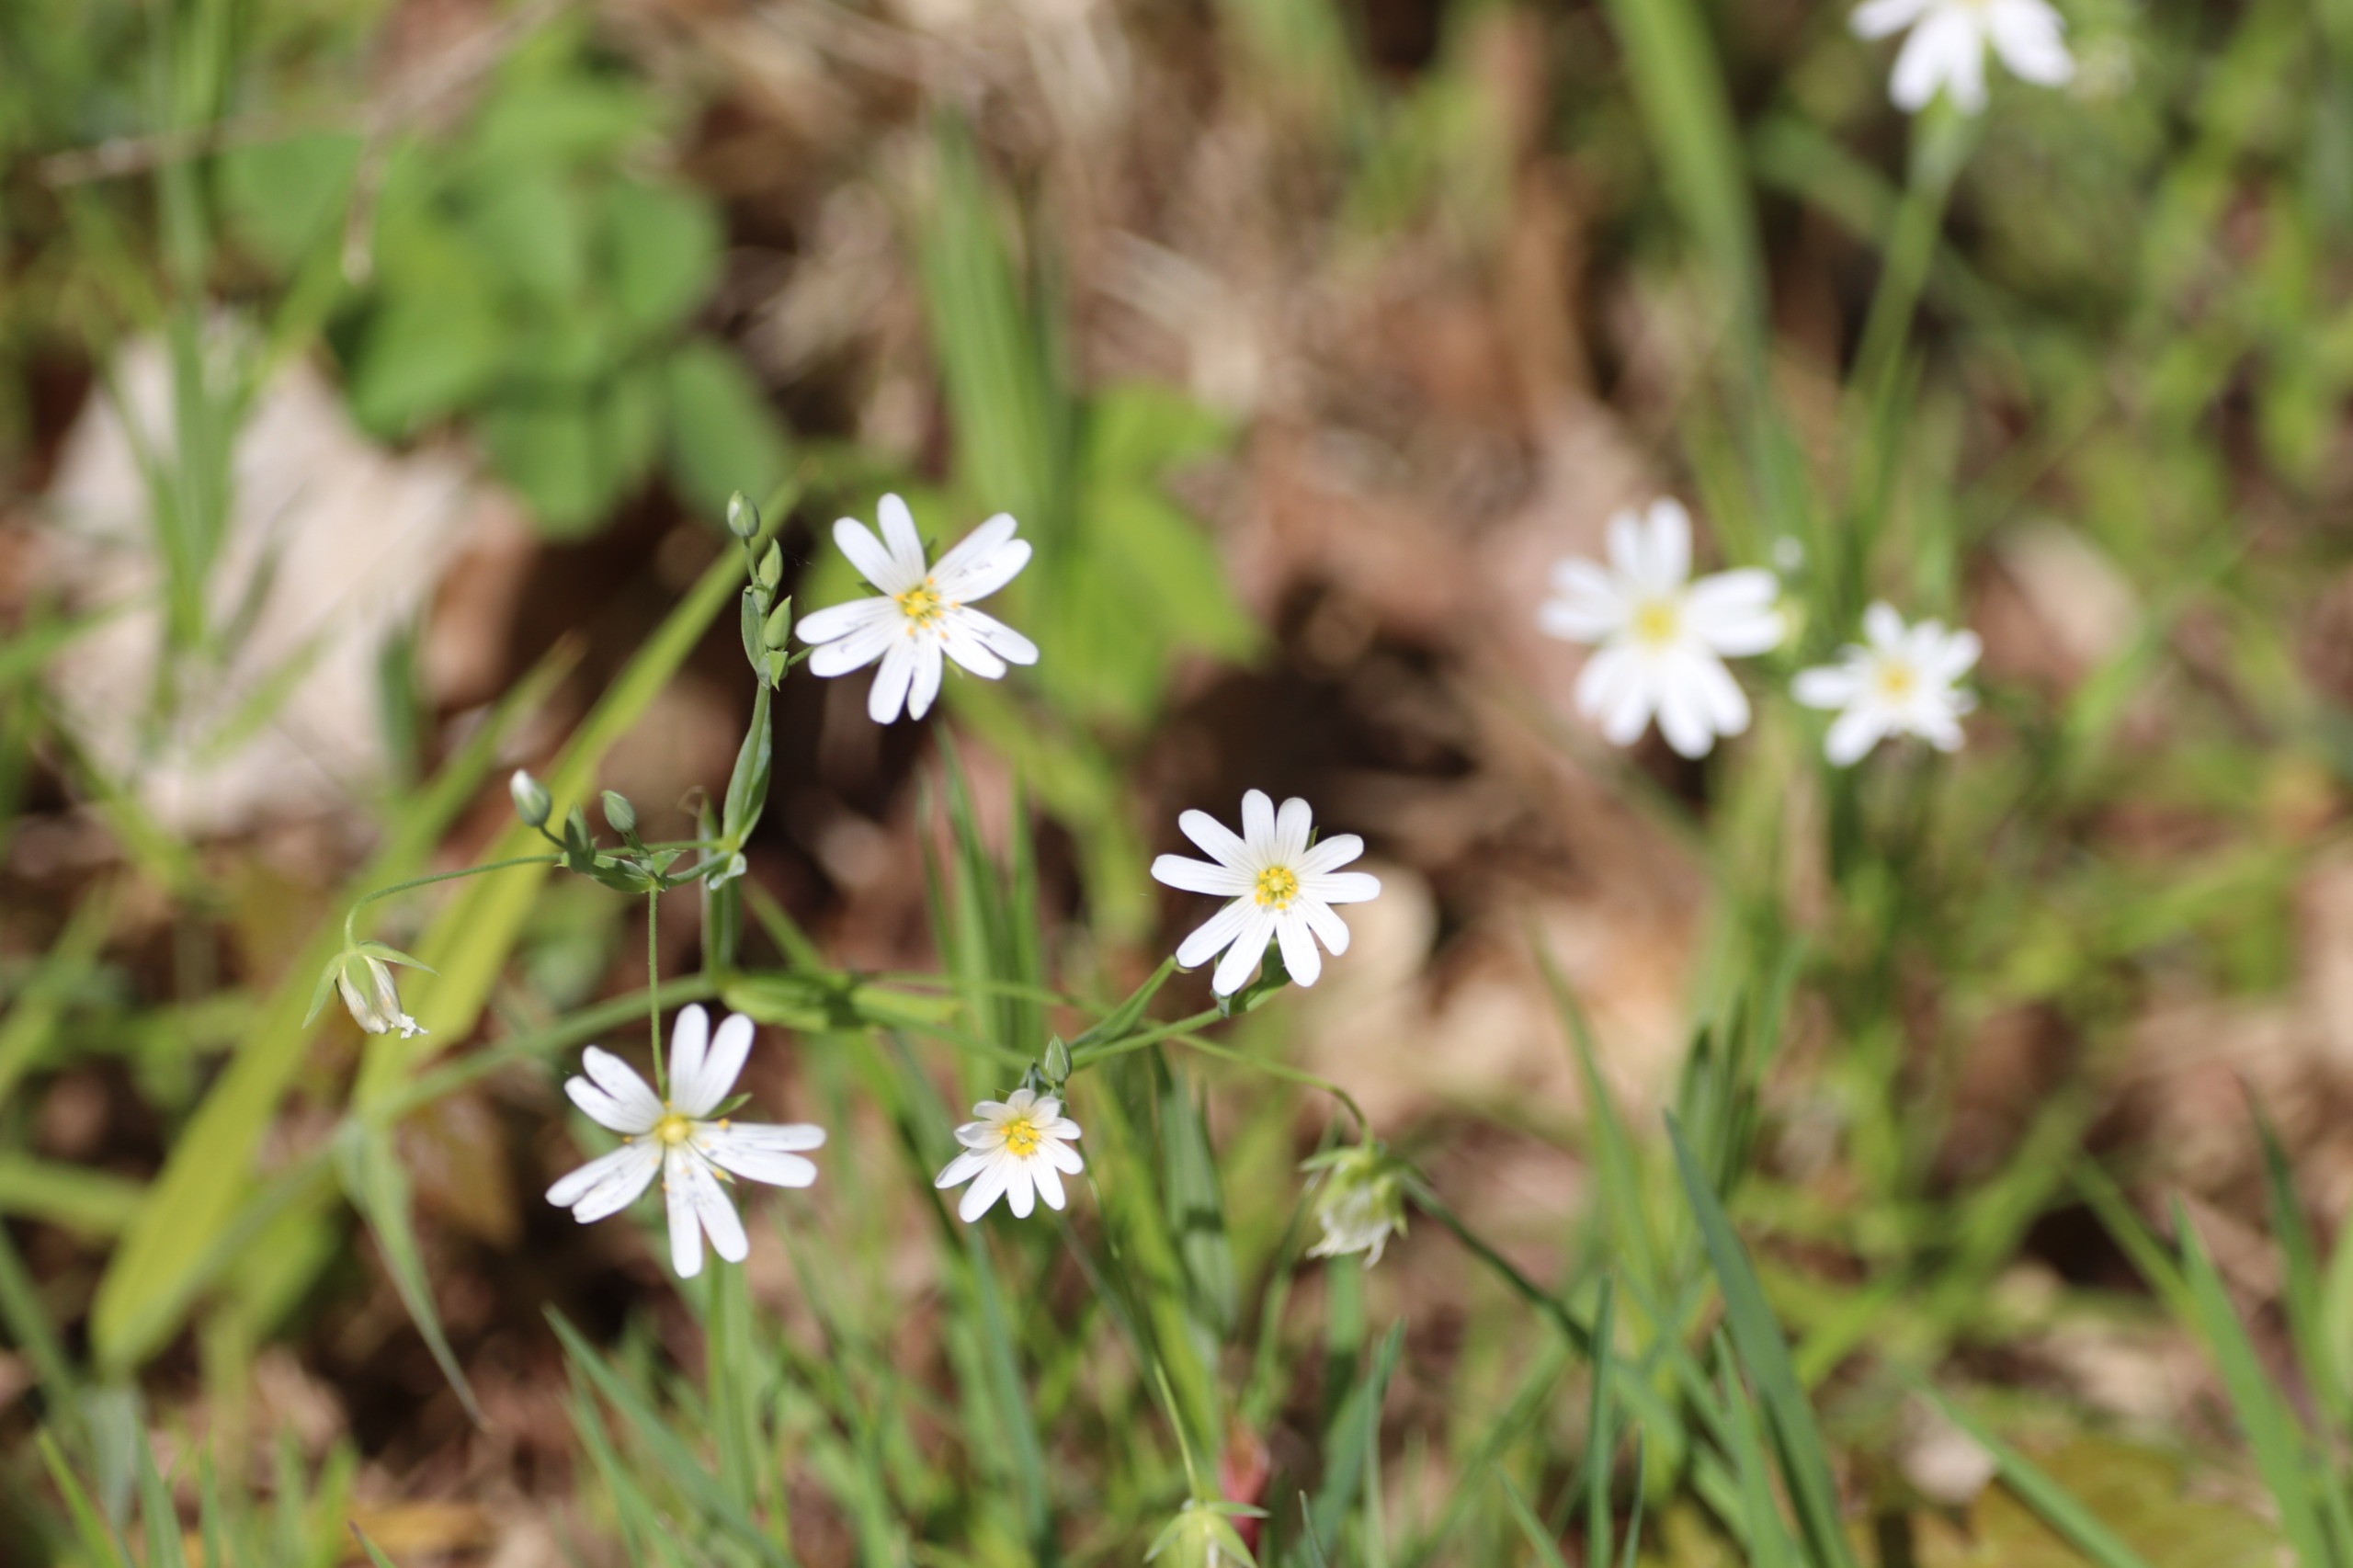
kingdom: Plantae
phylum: Tracheophyta
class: Magnoliopsida
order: Caryophyllales
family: Caryophyllaceae
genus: Rabelera
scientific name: Rabelera holostea
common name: Stor fladstjerne
